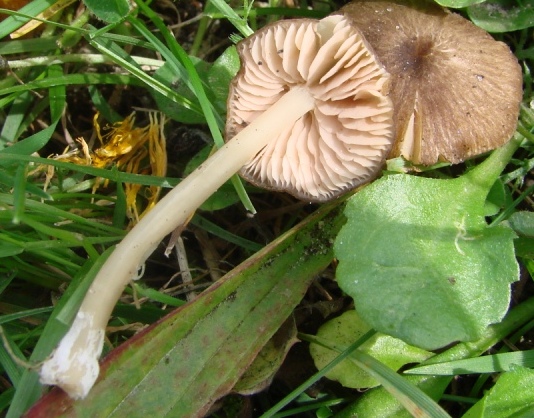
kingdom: Fungi
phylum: Basidiomycota
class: Agaricomycetes
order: Agaricales
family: Entolomataceae
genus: Entoloma
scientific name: Entoloma exile
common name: rødplettet rødblad
